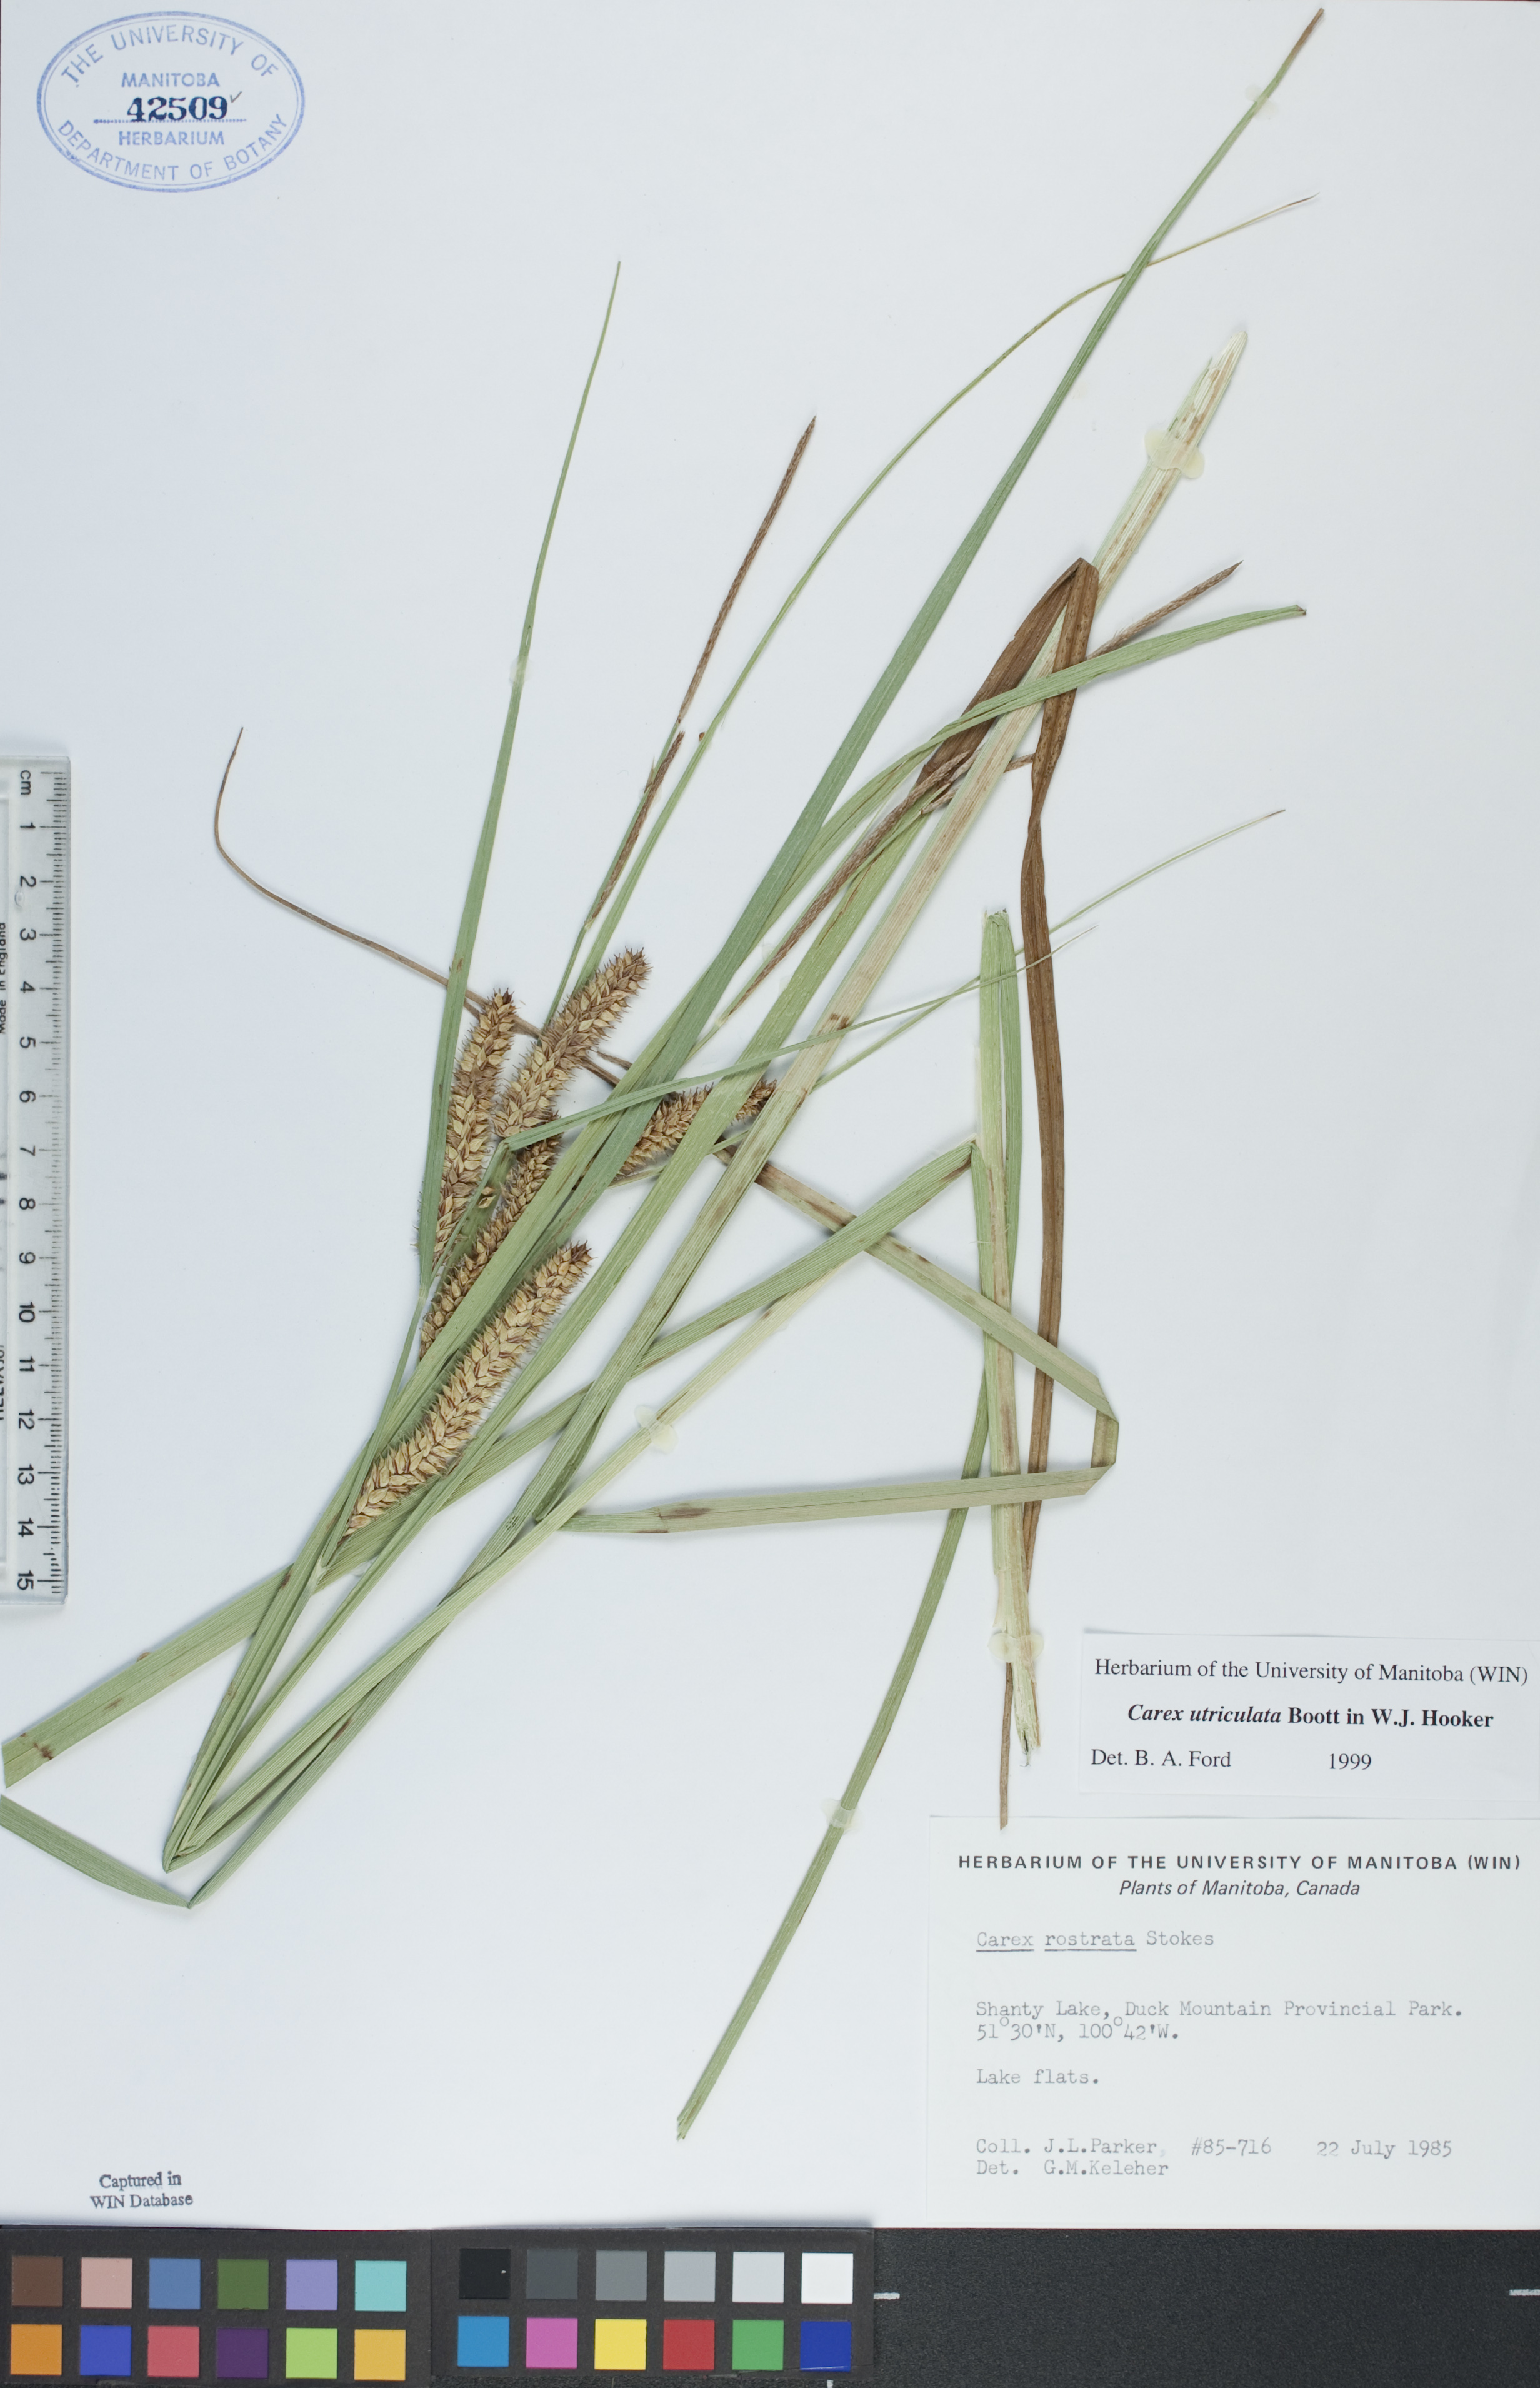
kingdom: Plantae
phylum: Tracheophyta
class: Liliopsida
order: Poales
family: Cyperaceae
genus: Carex
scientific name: Carex utriculata
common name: Beaked sedge
